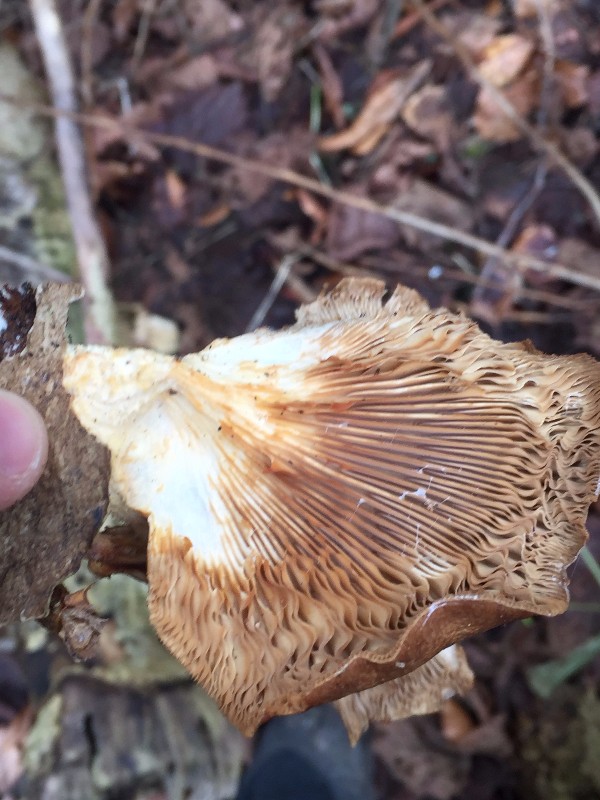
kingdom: Fungi
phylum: Basidiomycota
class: Agaricomycetes
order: Agaricales
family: Pleurotaceae
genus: Pleurotus
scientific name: Pleurotus ostreatus
